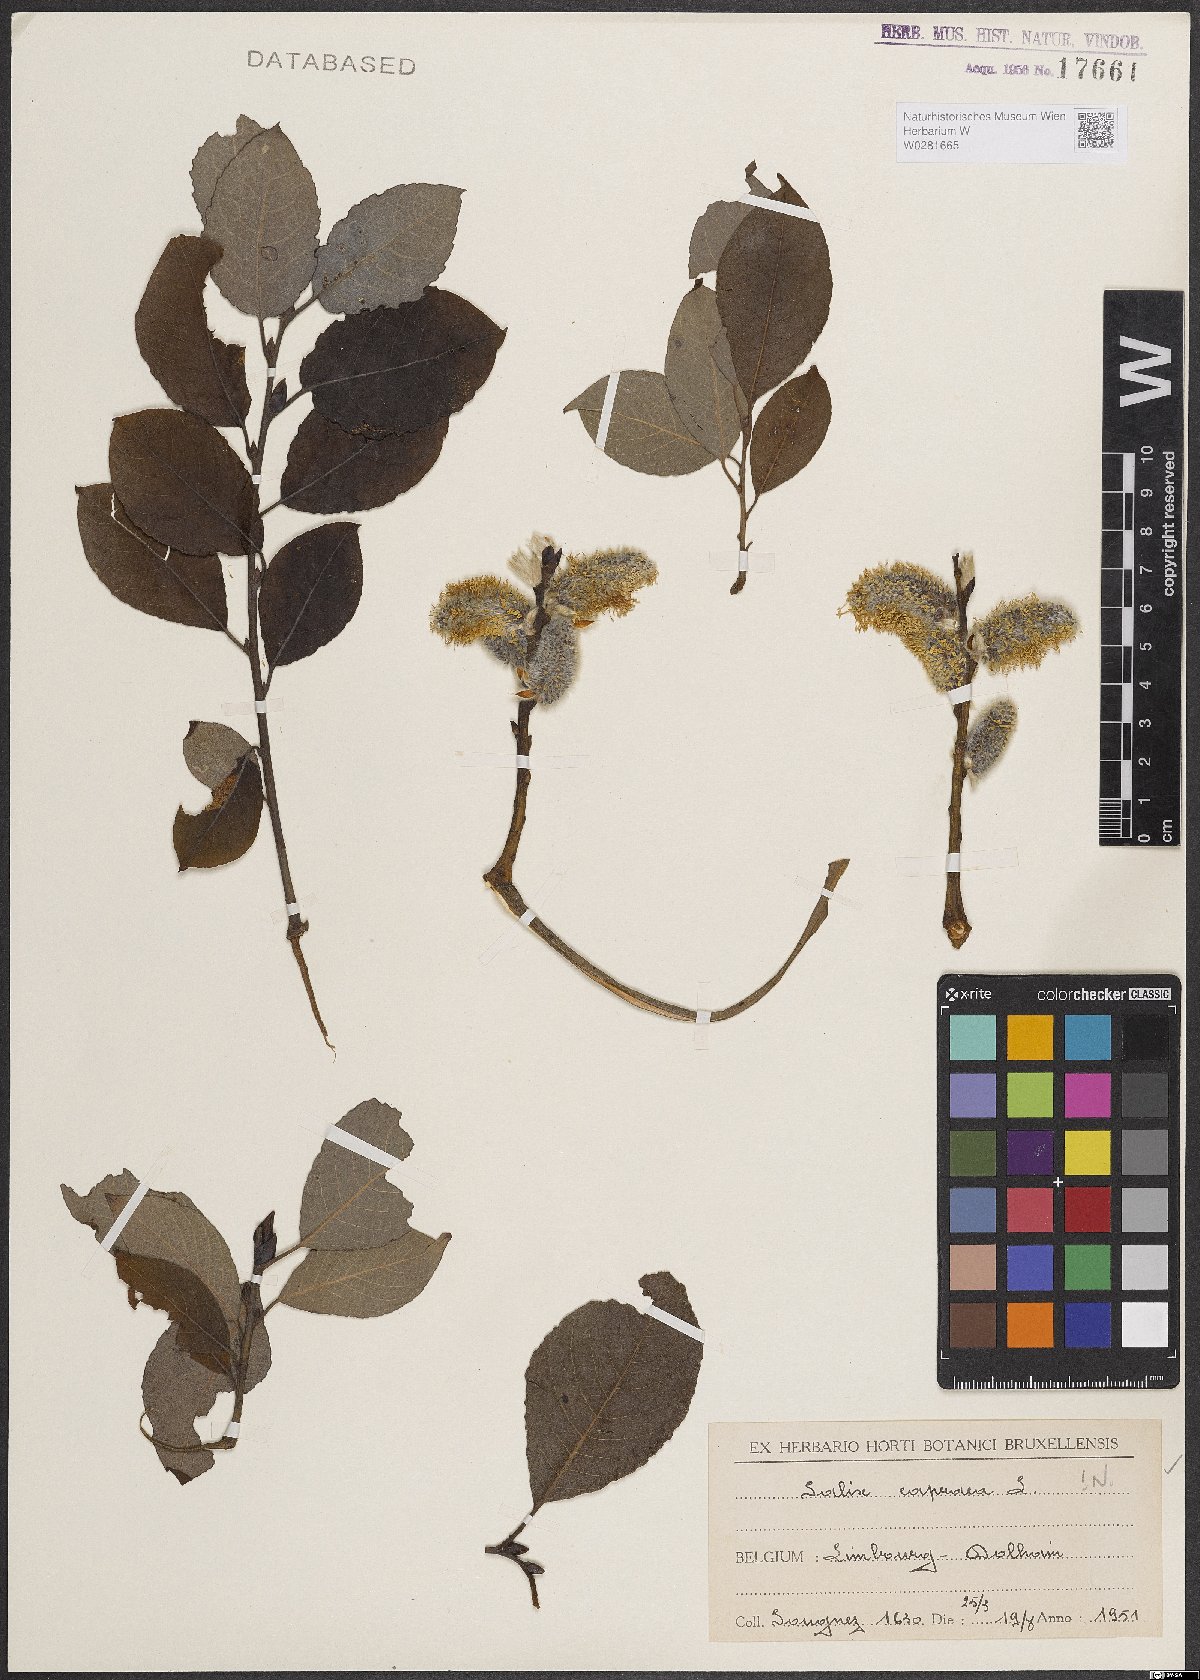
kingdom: Plantae
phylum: Tracheophyta
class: Magnoliopsida
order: Malpighiales
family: Salicaceae
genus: Salix
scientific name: Salix caprea
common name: Goat willow
